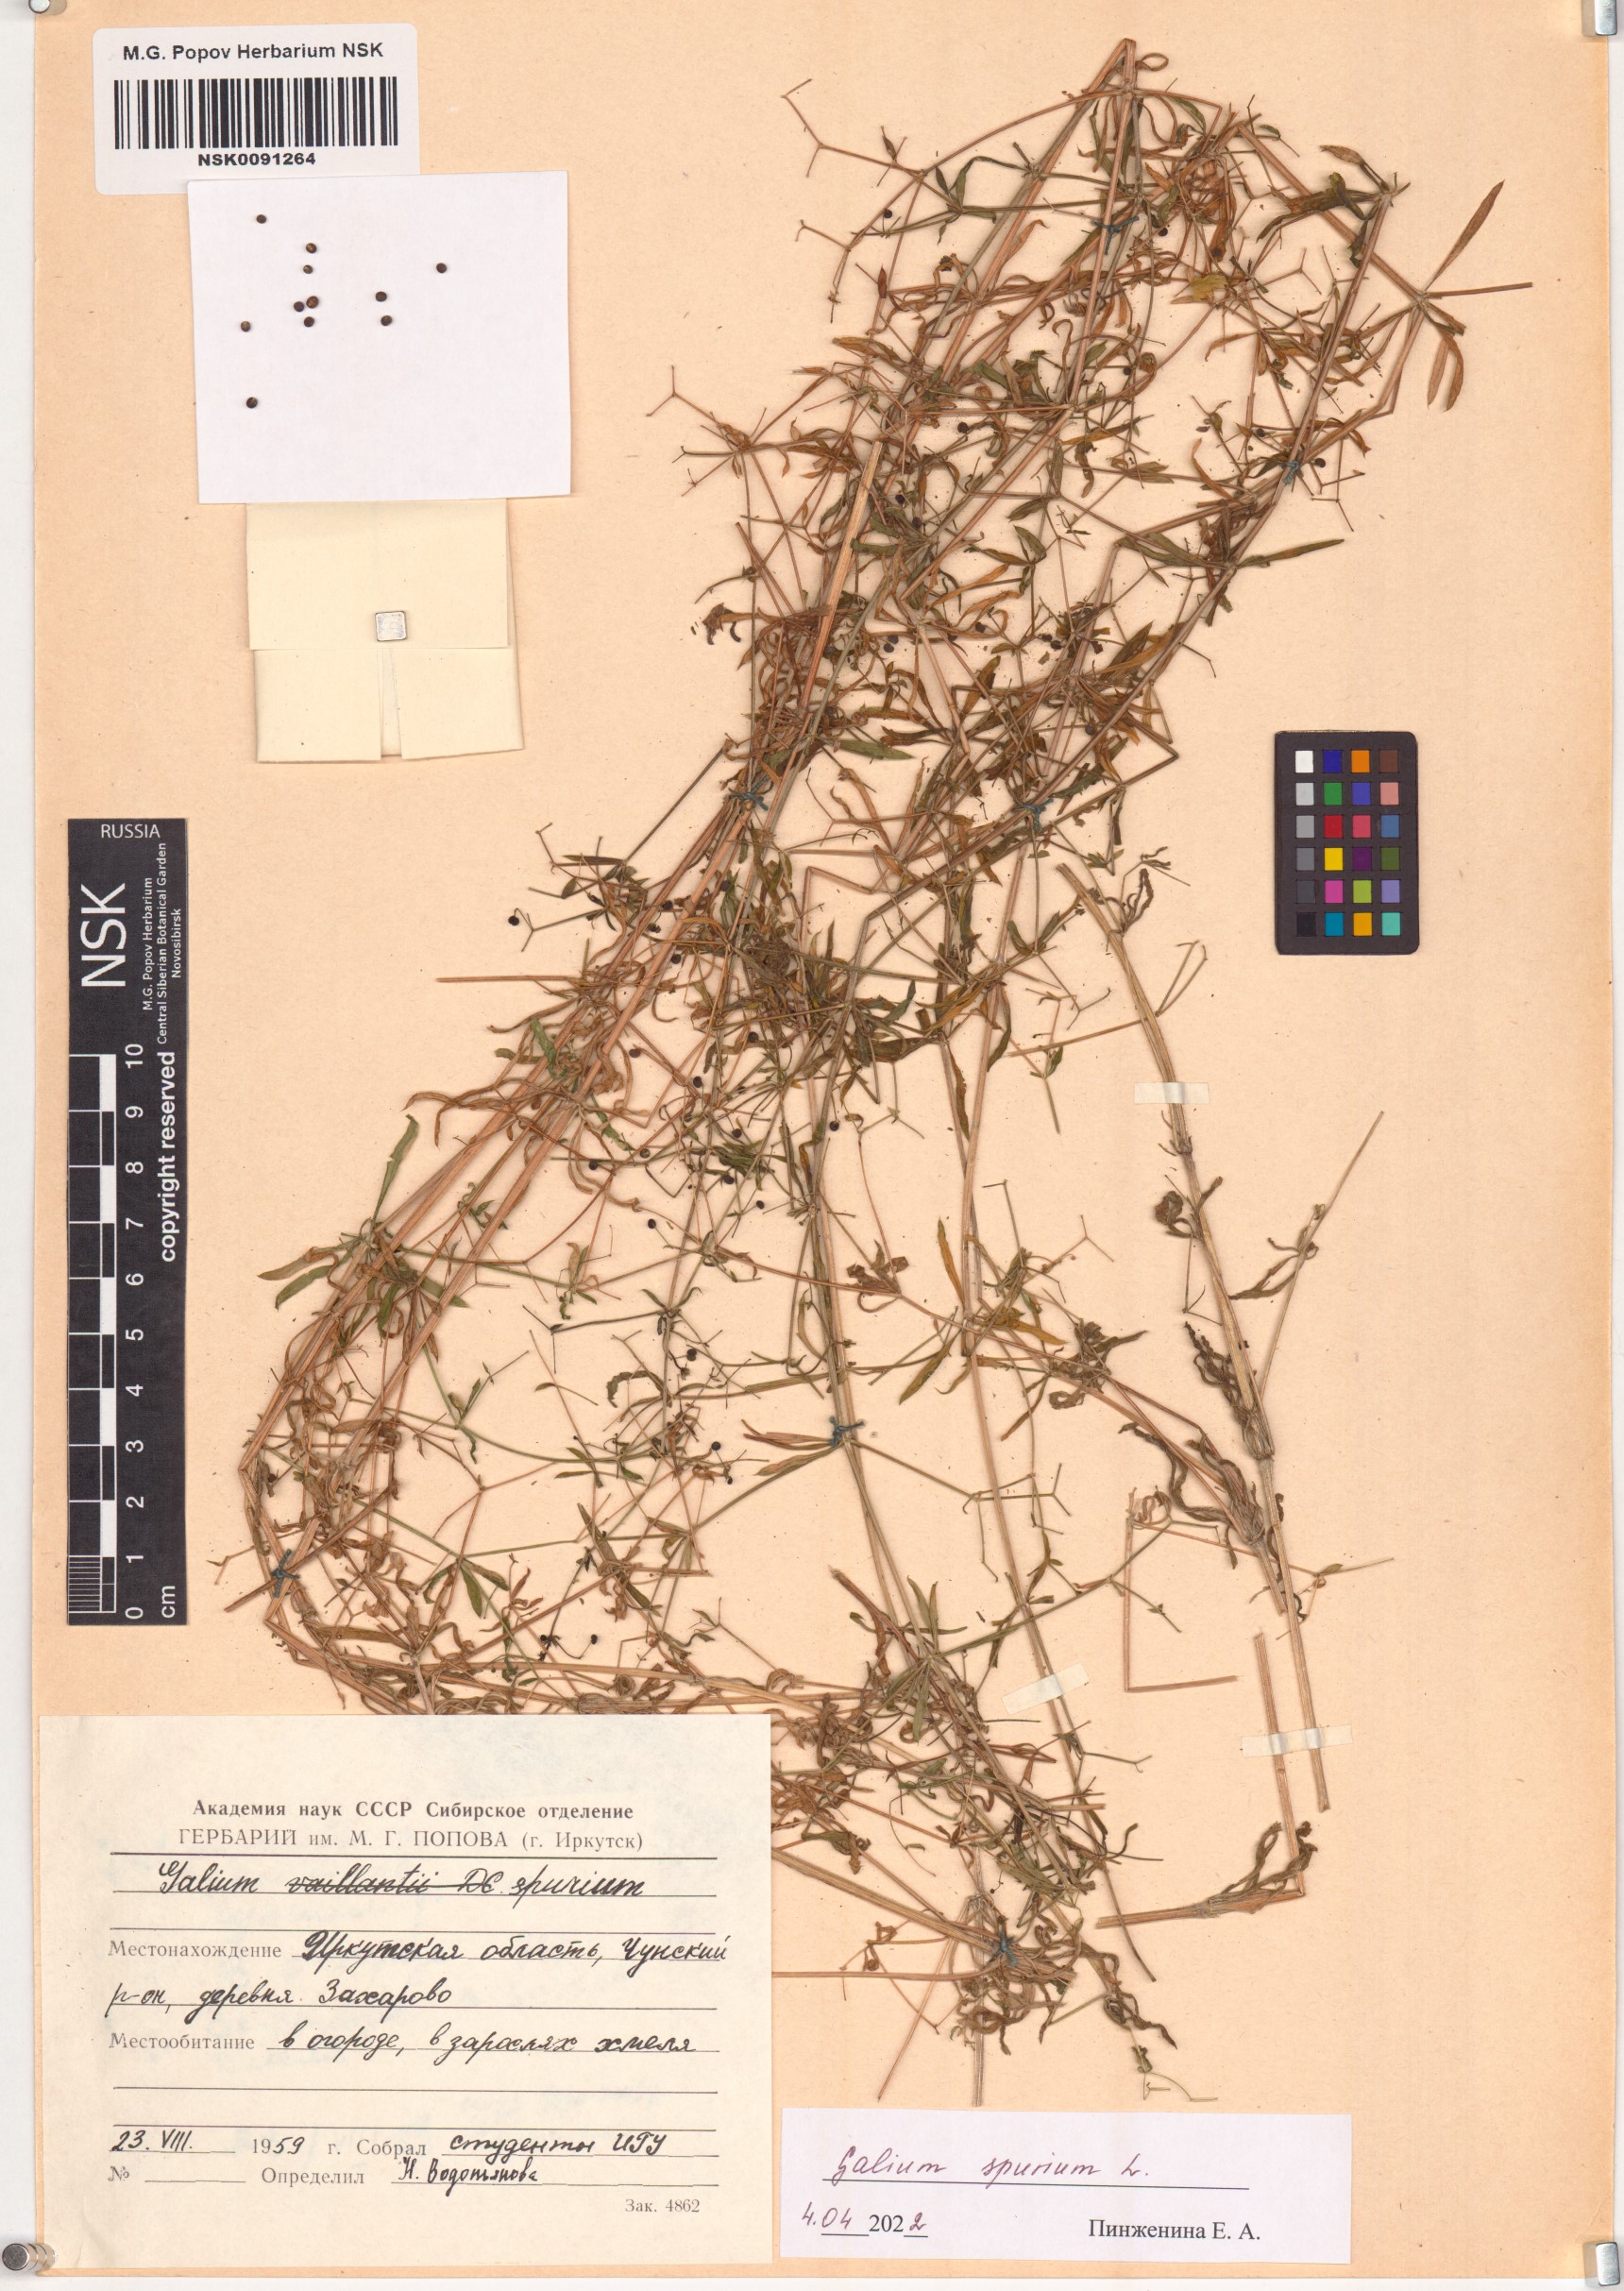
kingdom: Plantae
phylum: Tracheophyta
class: Magnoliopsida
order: Gentianales
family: Rubiaceae
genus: Galium
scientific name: Galium spurium
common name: False cleavers
